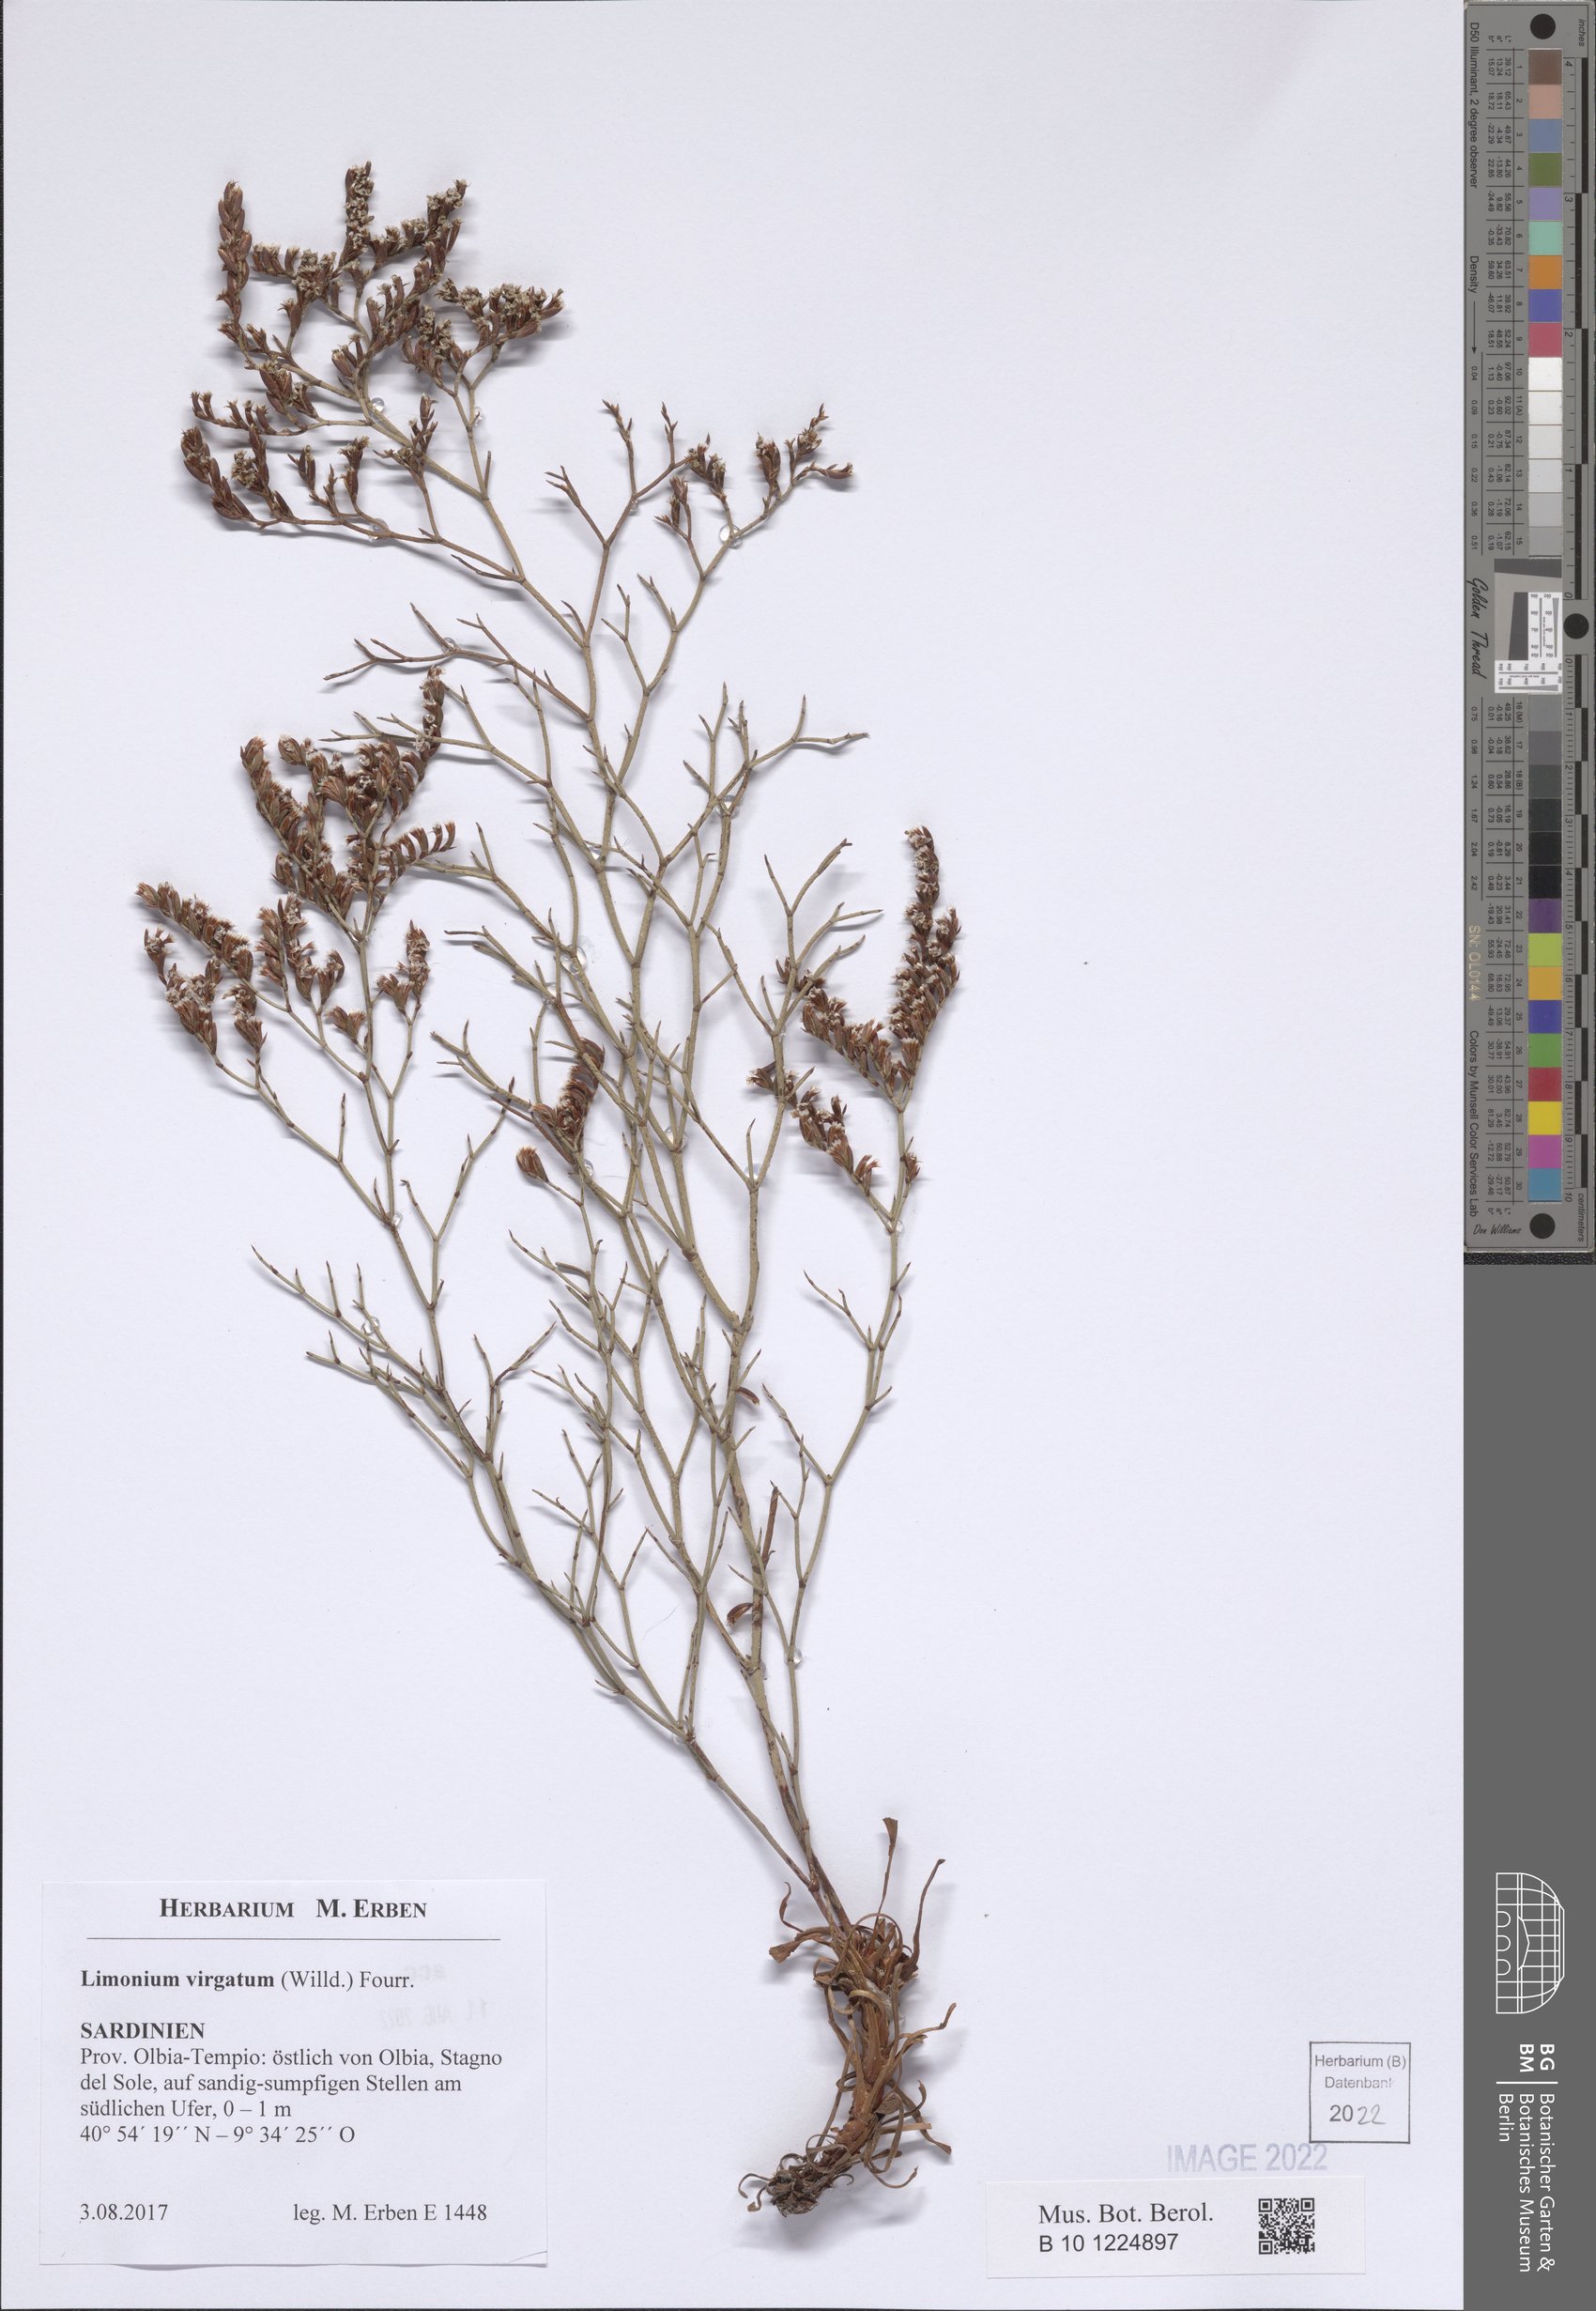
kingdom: Plantae
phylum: Tracheophyta
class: Magnoliopsida
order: Caryophyllales
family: Plumbaginaceae
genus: Limonium
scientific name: Limonium virgatum
